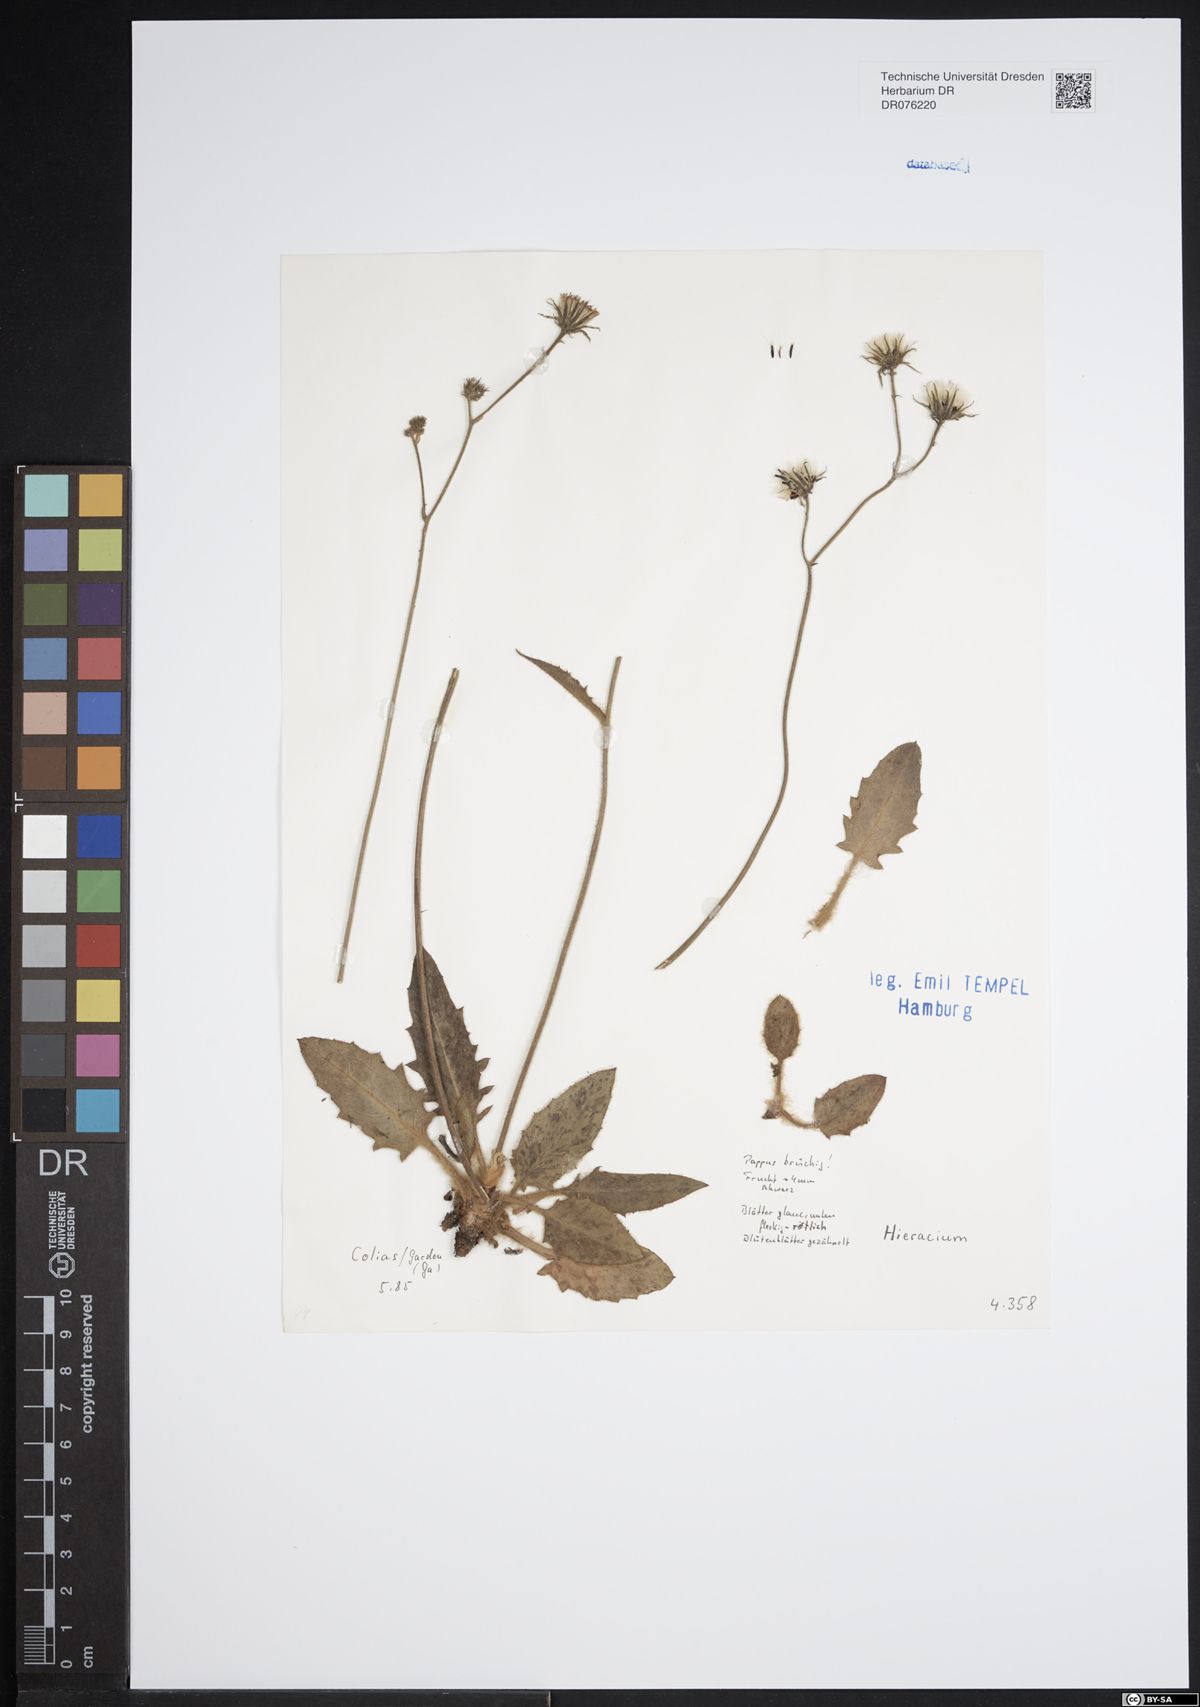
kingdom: Plantae
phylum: Tracheophyta
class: Magnoliopsida
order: Asterales
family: Asteraceae
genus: Hieracium
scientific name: Hieracium
